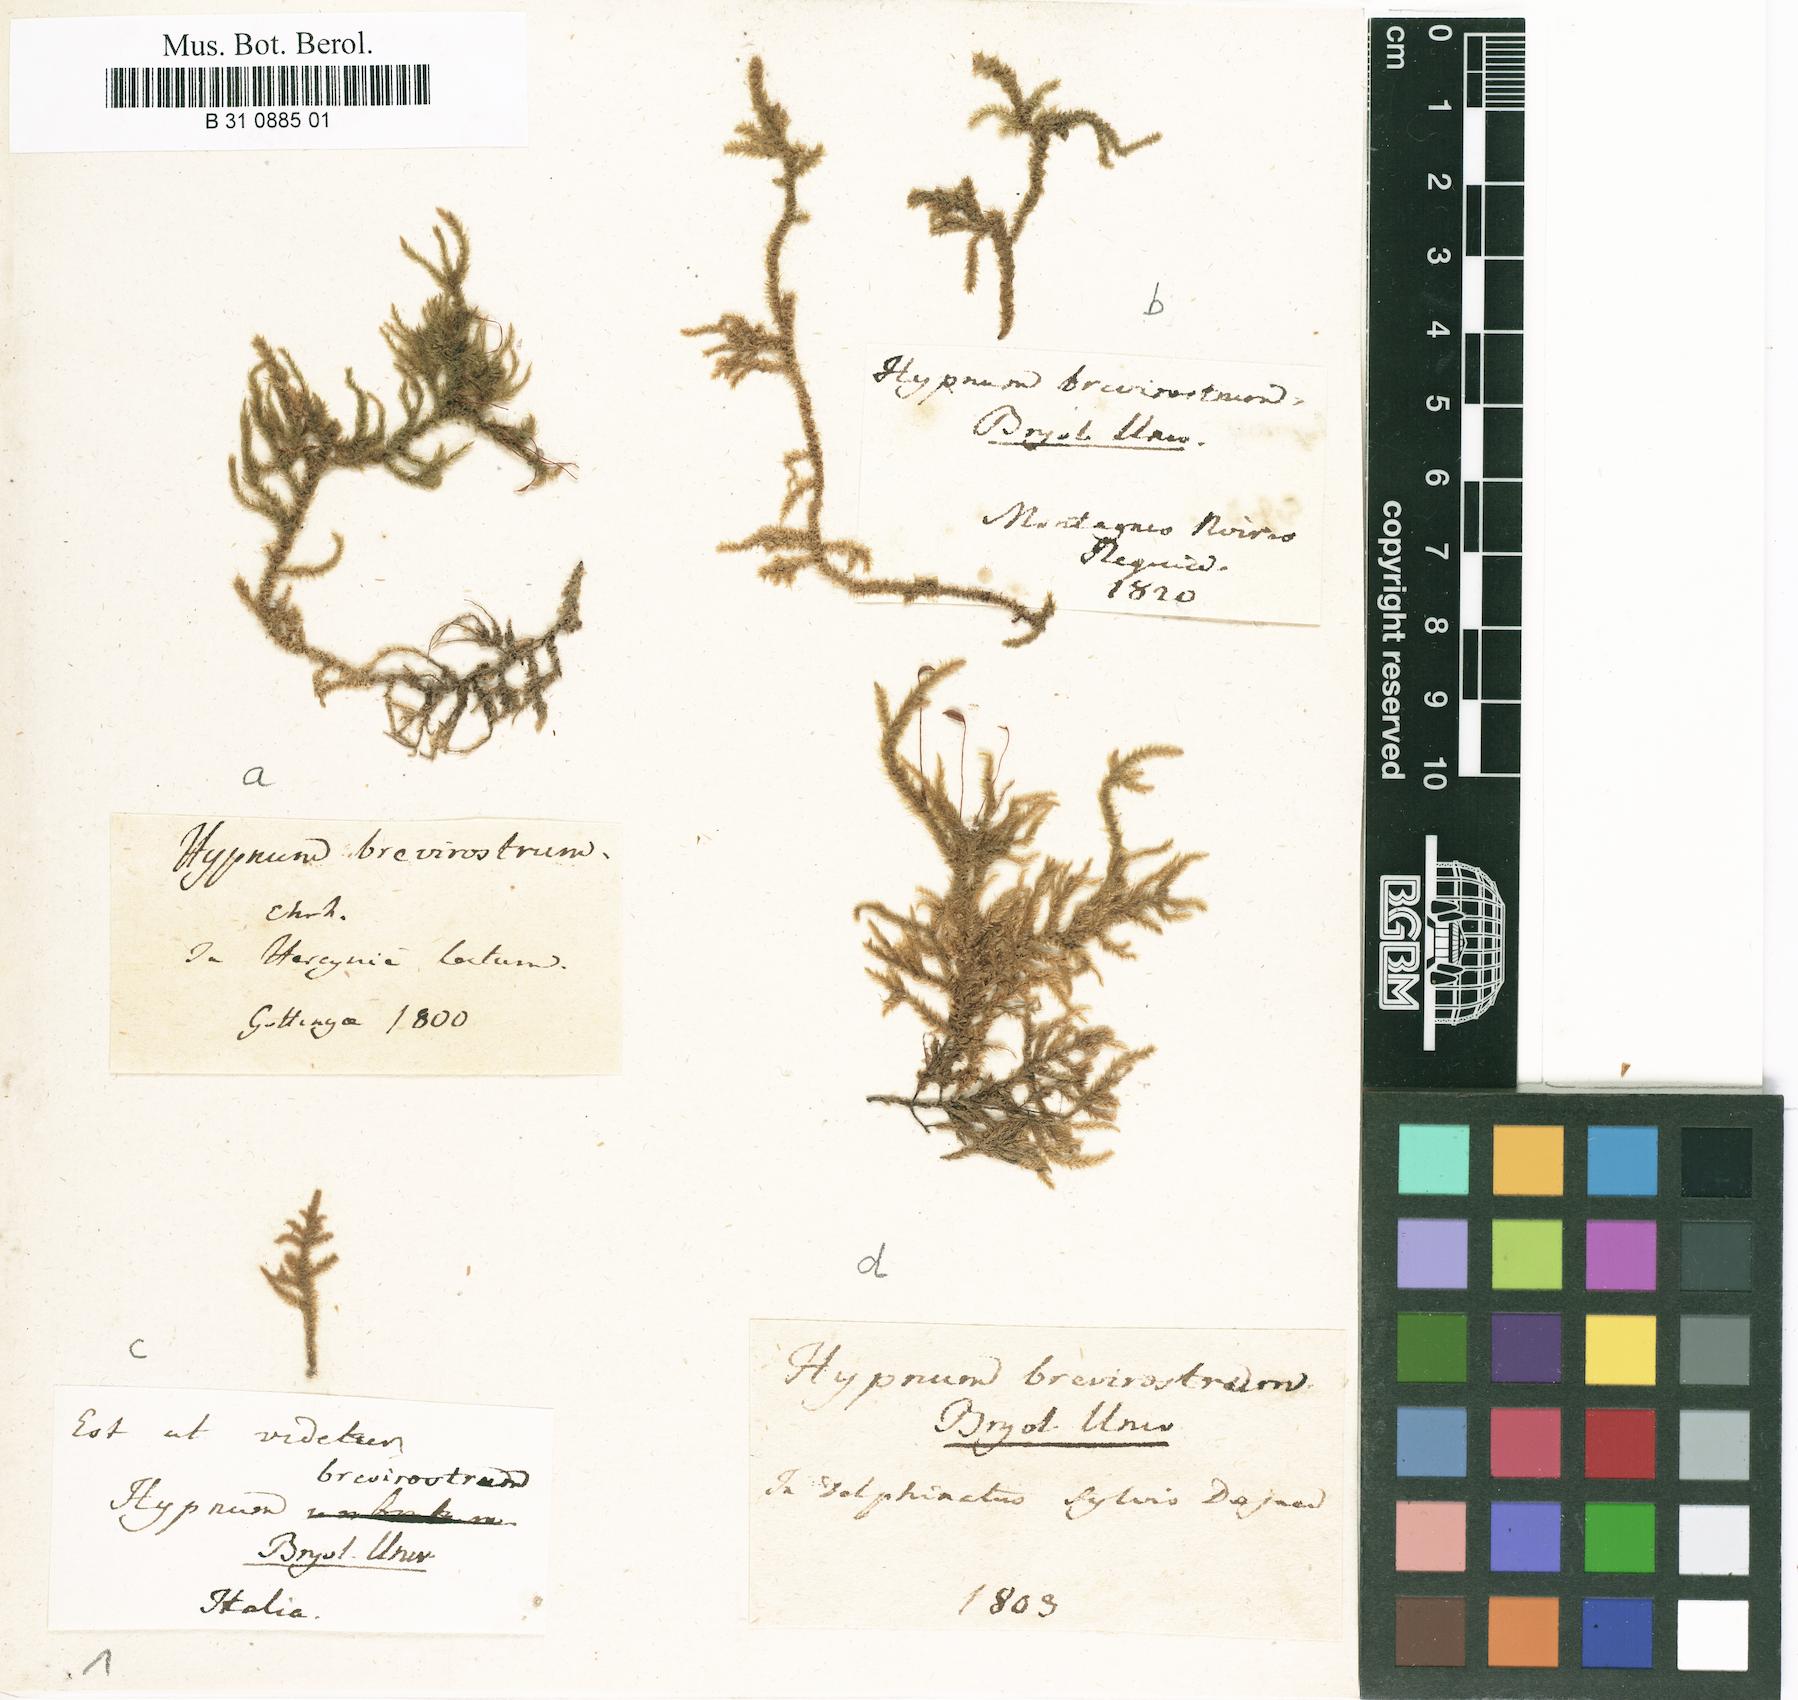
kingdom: Plantae
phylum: Bryophyta
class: Bryopsida
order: Hypnales
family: Hylocomiaceae
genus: Loeskeobryum
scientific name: Loeskeobryum brevirostre
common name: Short-beaked wood-moss
